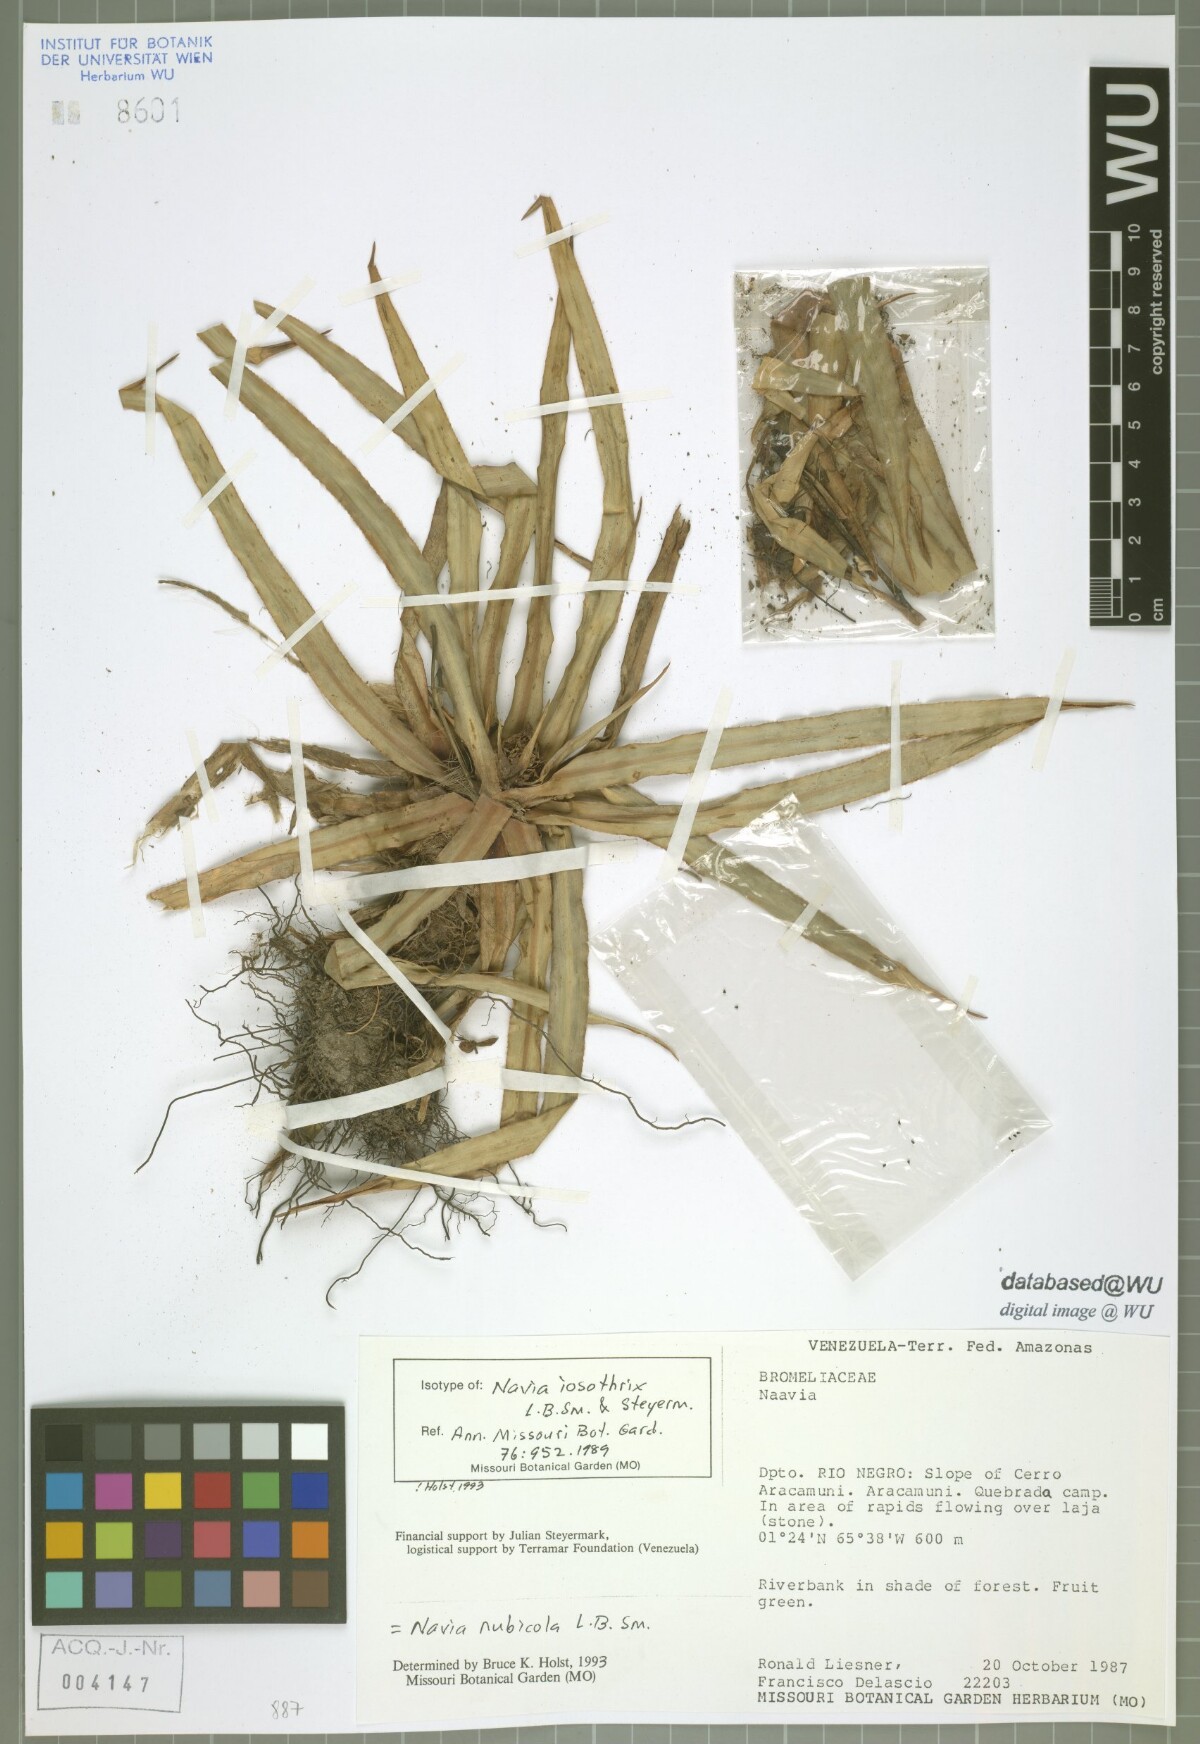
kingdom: Plantae
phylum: Tracheophyta
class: Liliopsida
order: Poales
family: Bromeliaceae
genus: Navia
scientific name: Navia nubicola
